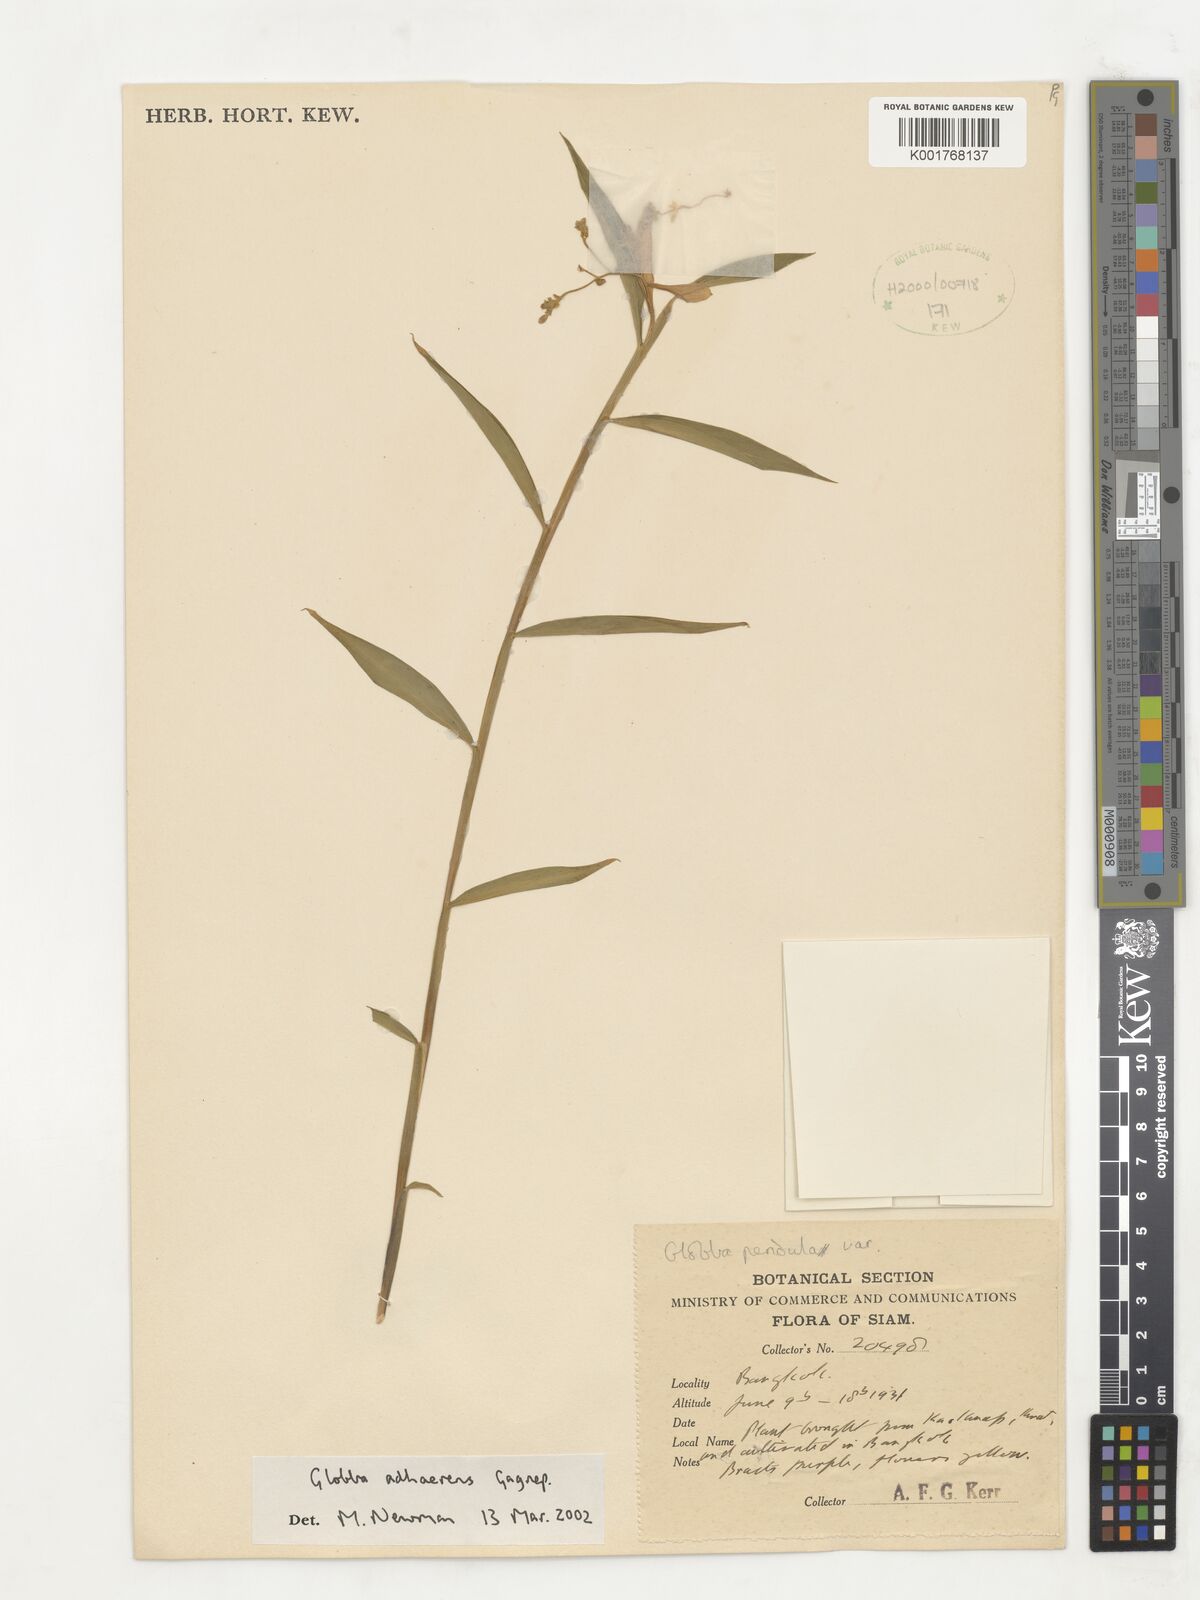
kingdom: Plantae
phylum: Tracheophyta
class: Liliopsida
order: Zingiberales
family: Zingiberaceae
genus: Globba
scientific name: Globba adhaerens
